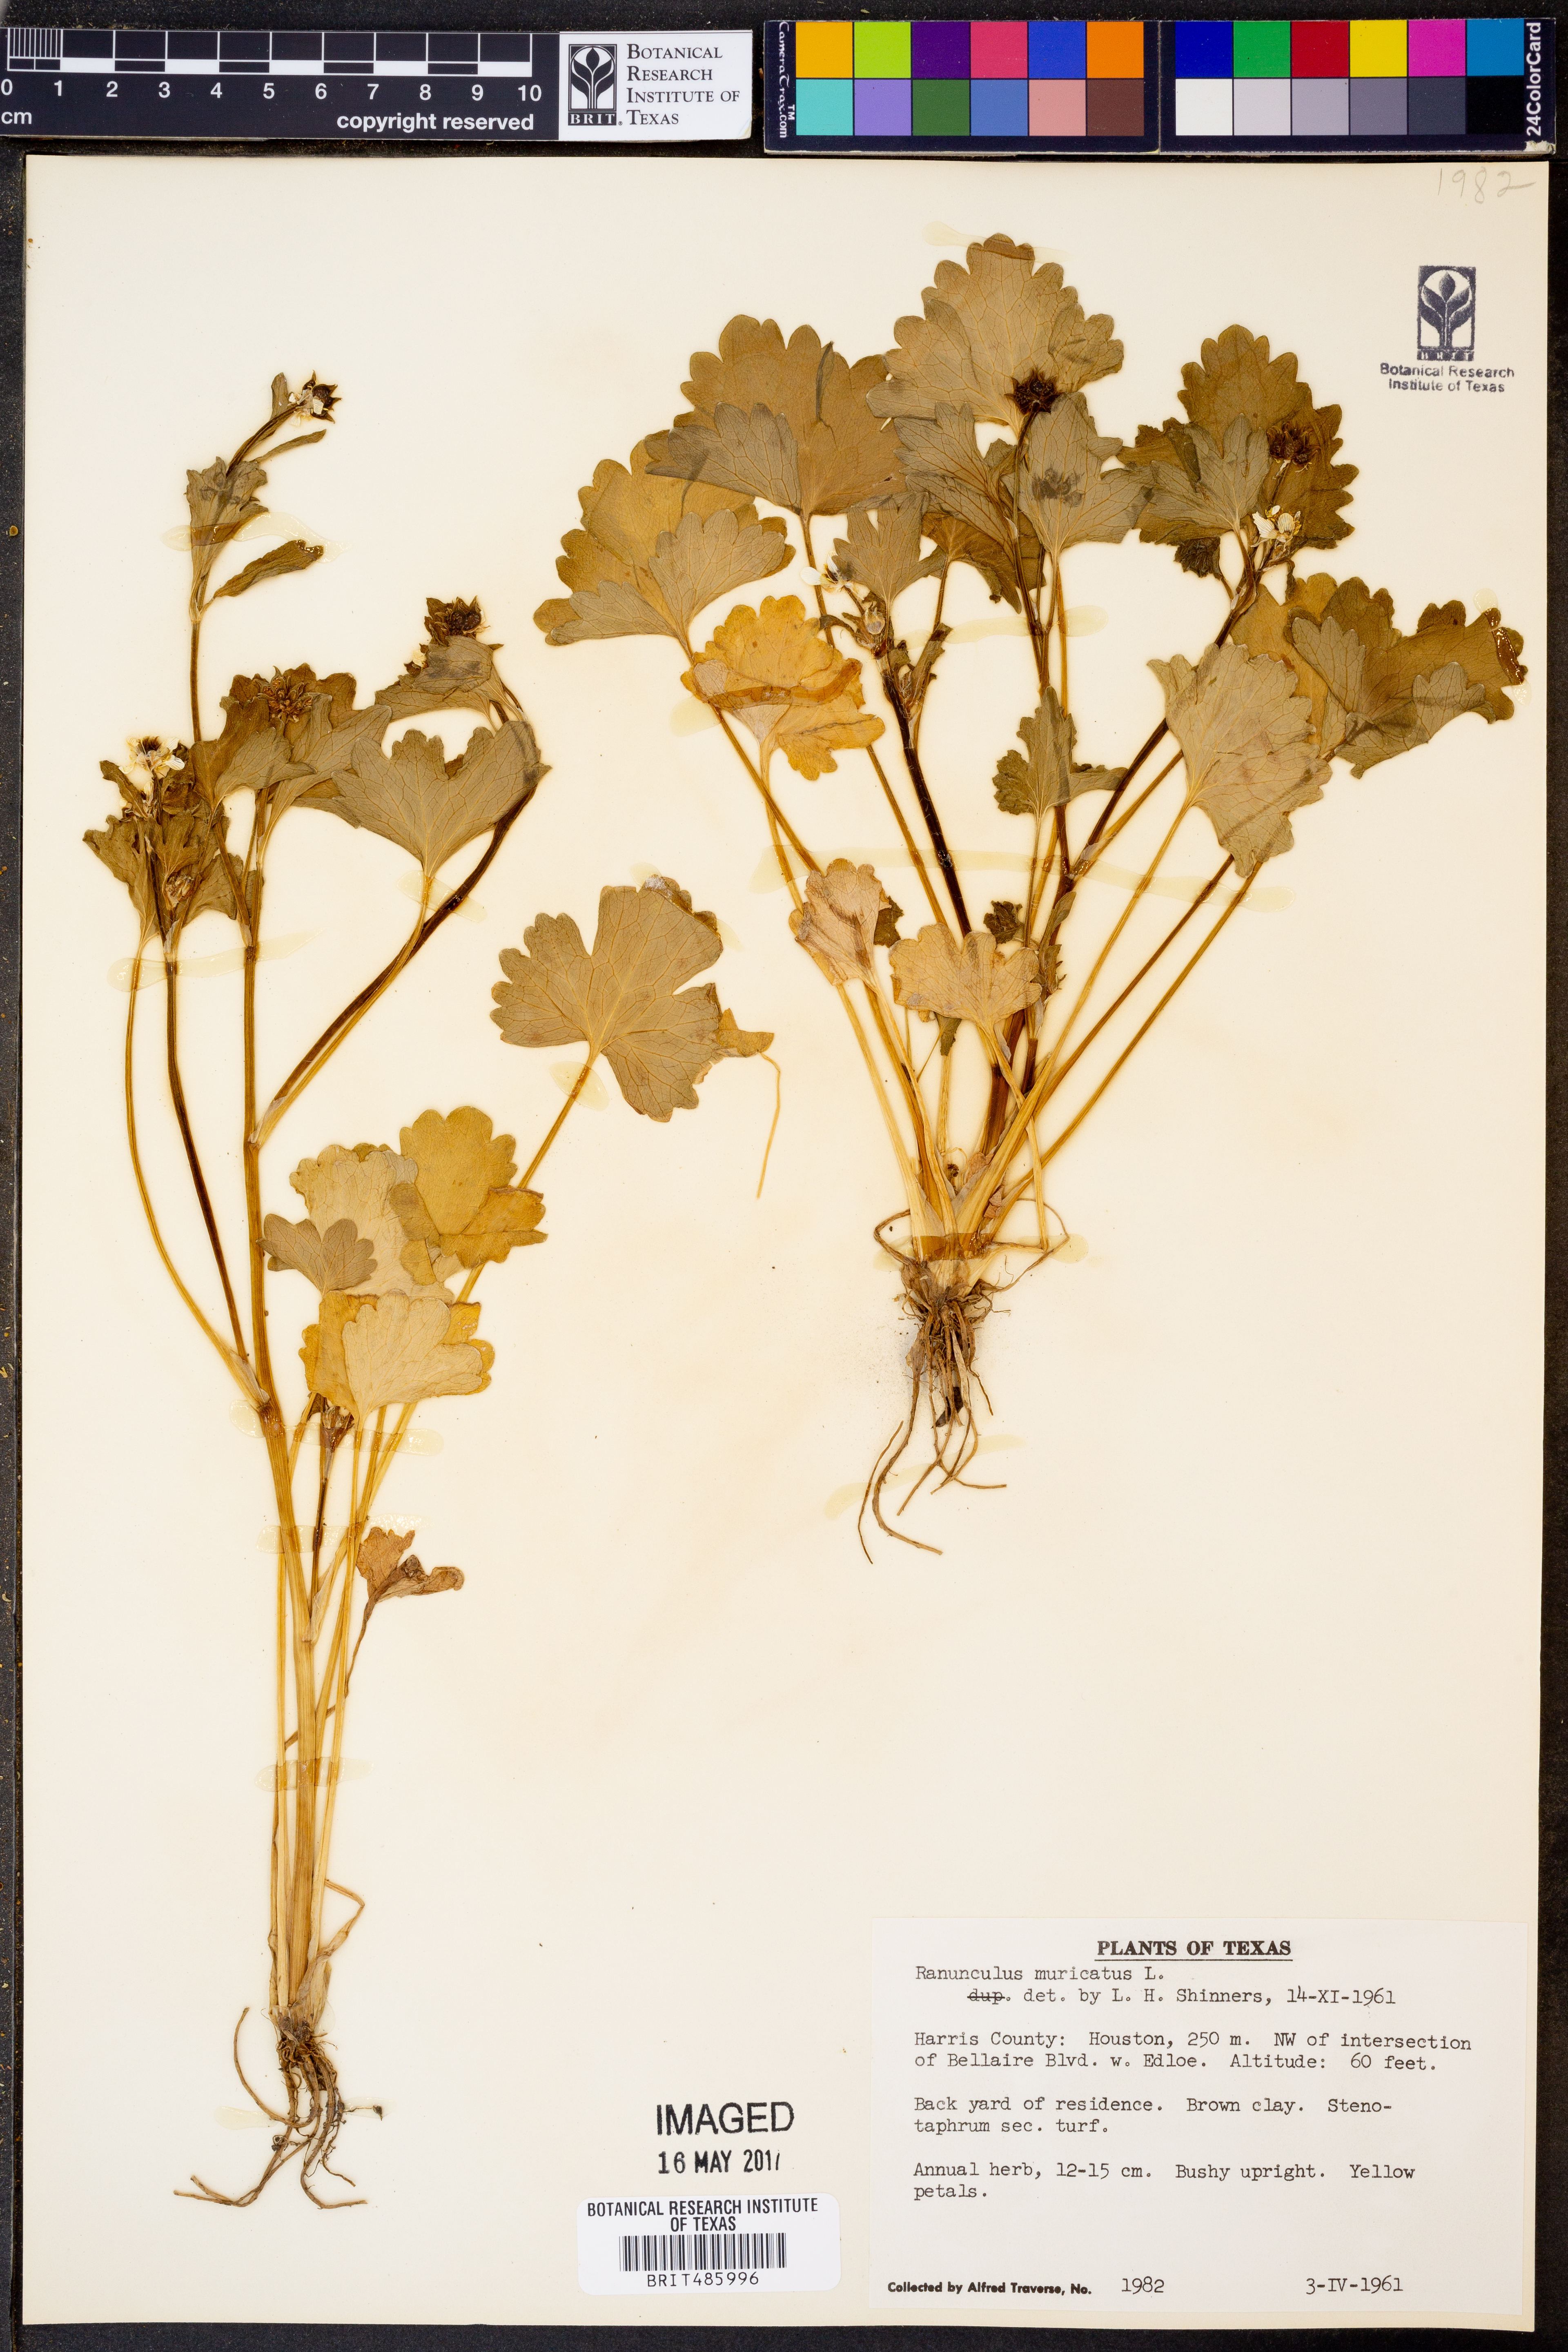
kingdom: Plantae
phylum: Tracheophyta
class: Magnoliopsida
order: Ranunculales
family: Ranunculaceae
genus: Ranunculus
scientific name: Ranunculus muricatus
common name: Rough-fruited buttercup
